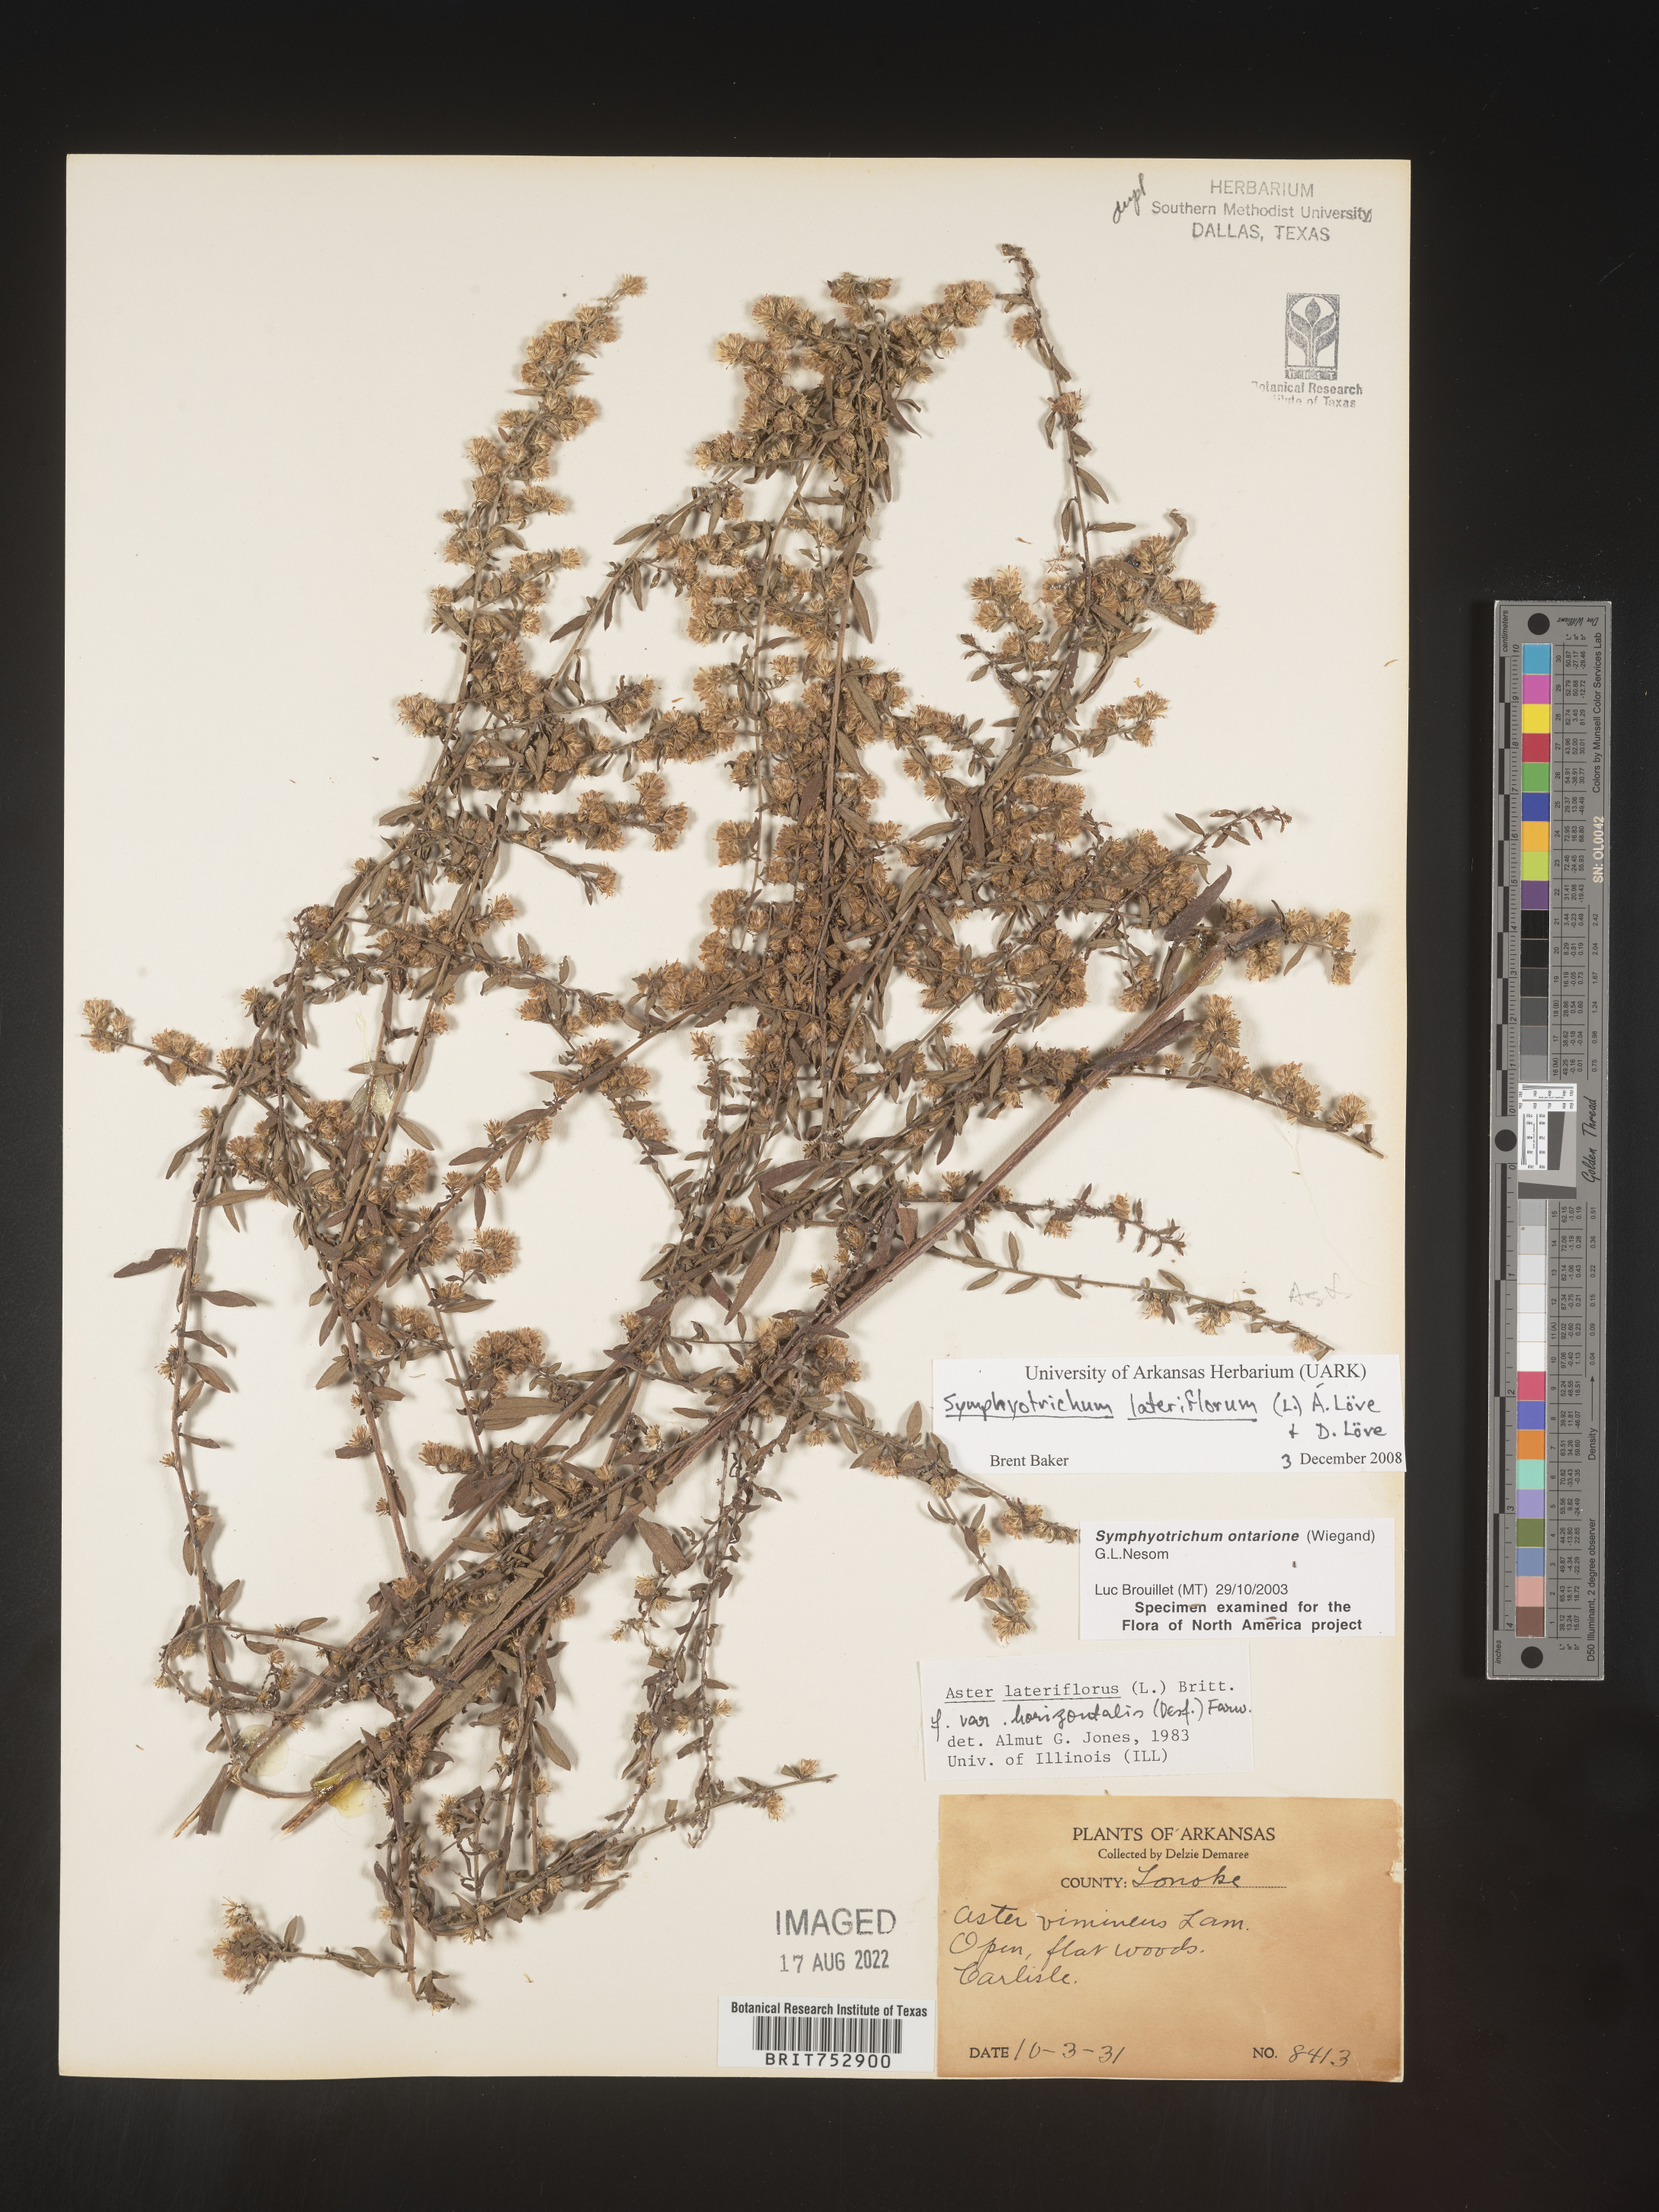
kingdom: Plantae
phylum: Tracheophyta
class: Magnoliopsida
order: Asterales
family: Asteraceae
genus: Symphyotrichum
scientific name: Symphyotrichum lateriflorum
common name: Calico aster
